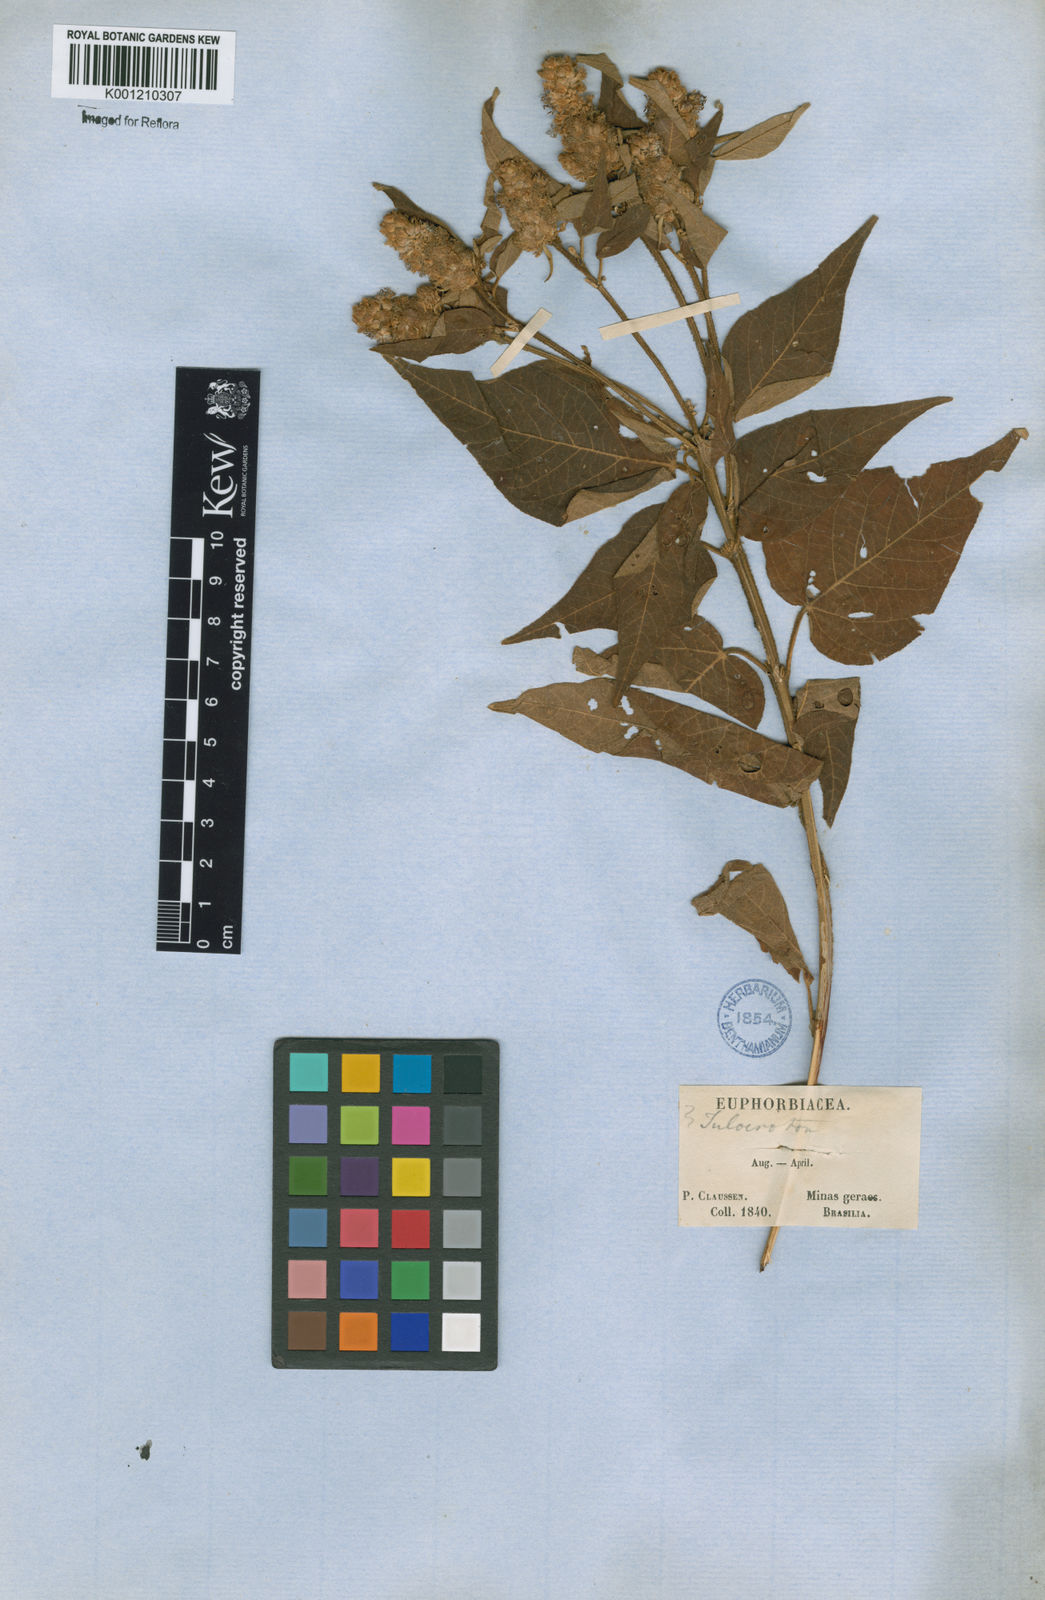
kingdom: Plantae
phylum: Tracheophyta
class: Magnoliopsida
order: Malpighiales
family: Euphorbiaceae
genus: Croton
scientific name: Croton triqueter
